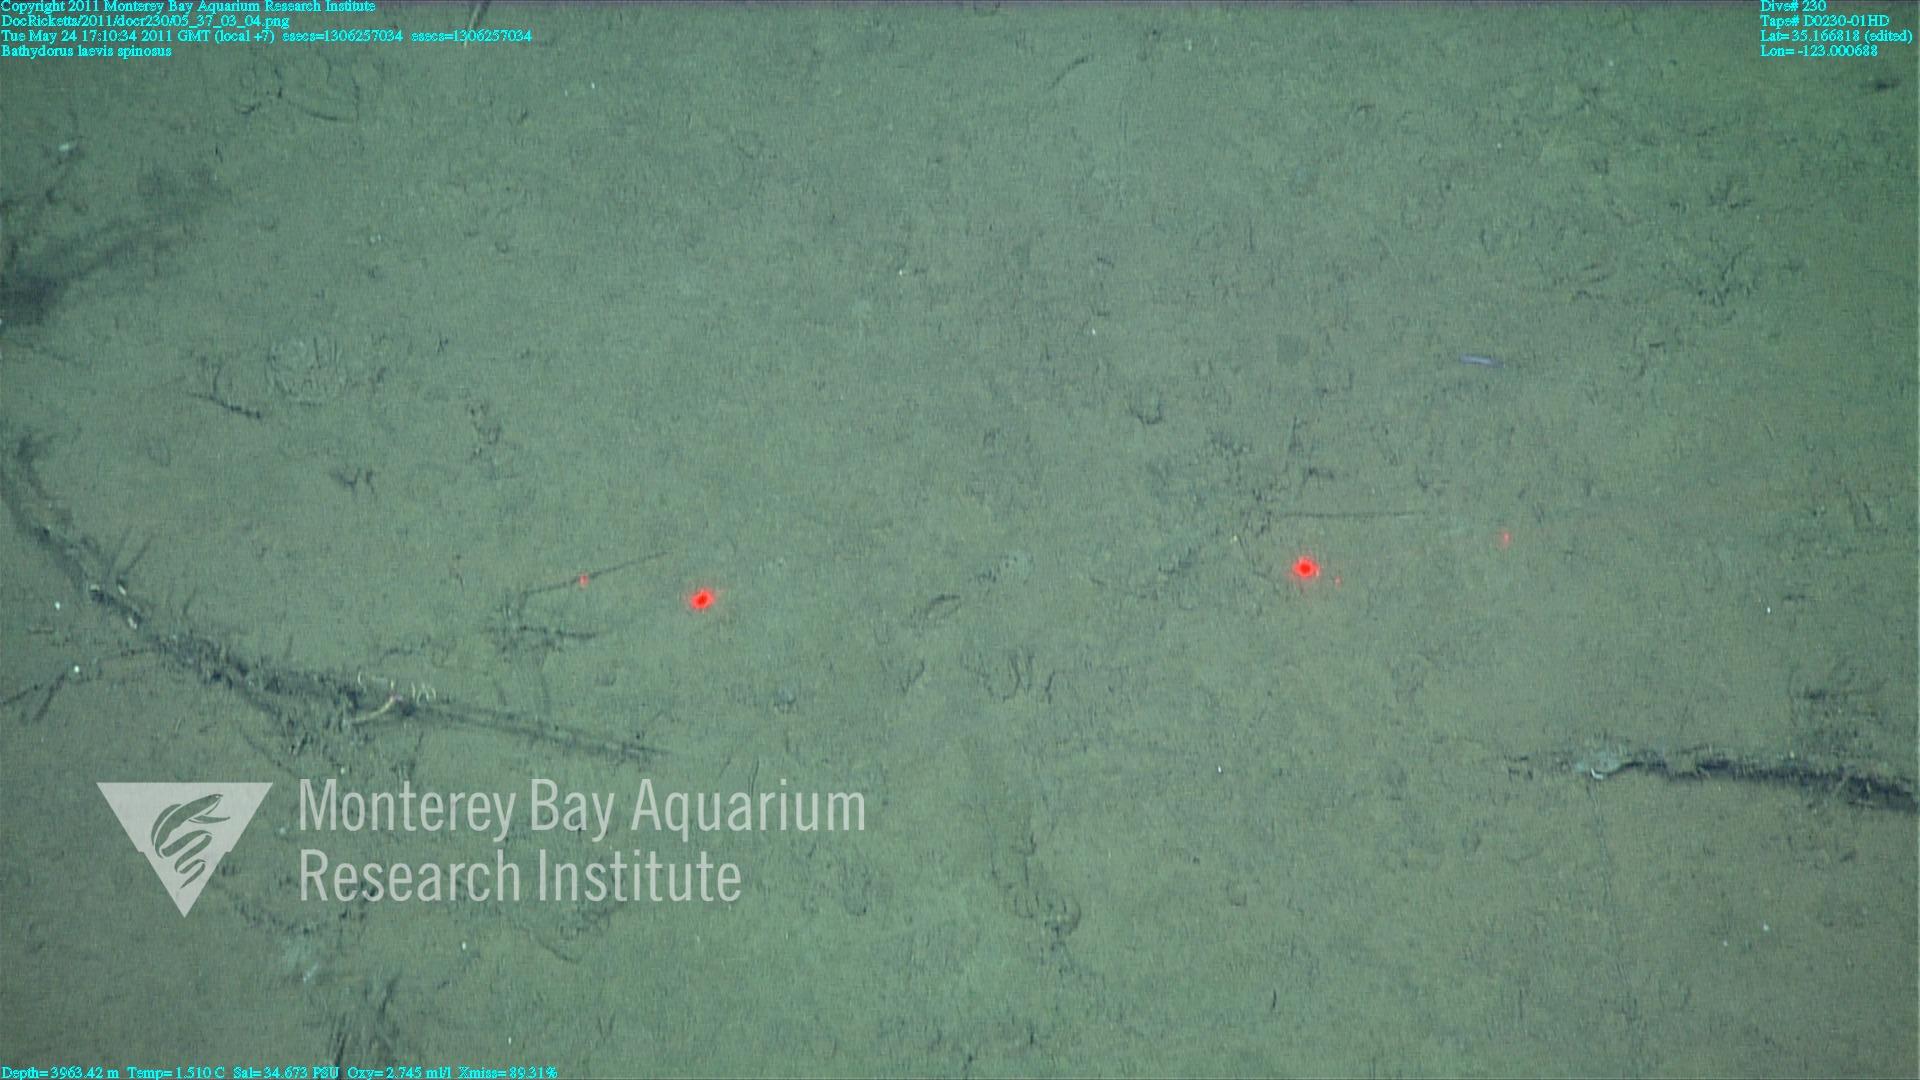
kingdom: Animalia
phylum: Porifera
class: Hexactinellida
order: Lyssacinosida
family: Rossellidae
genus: Bathydorus
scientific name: Bathydorus spinosus
